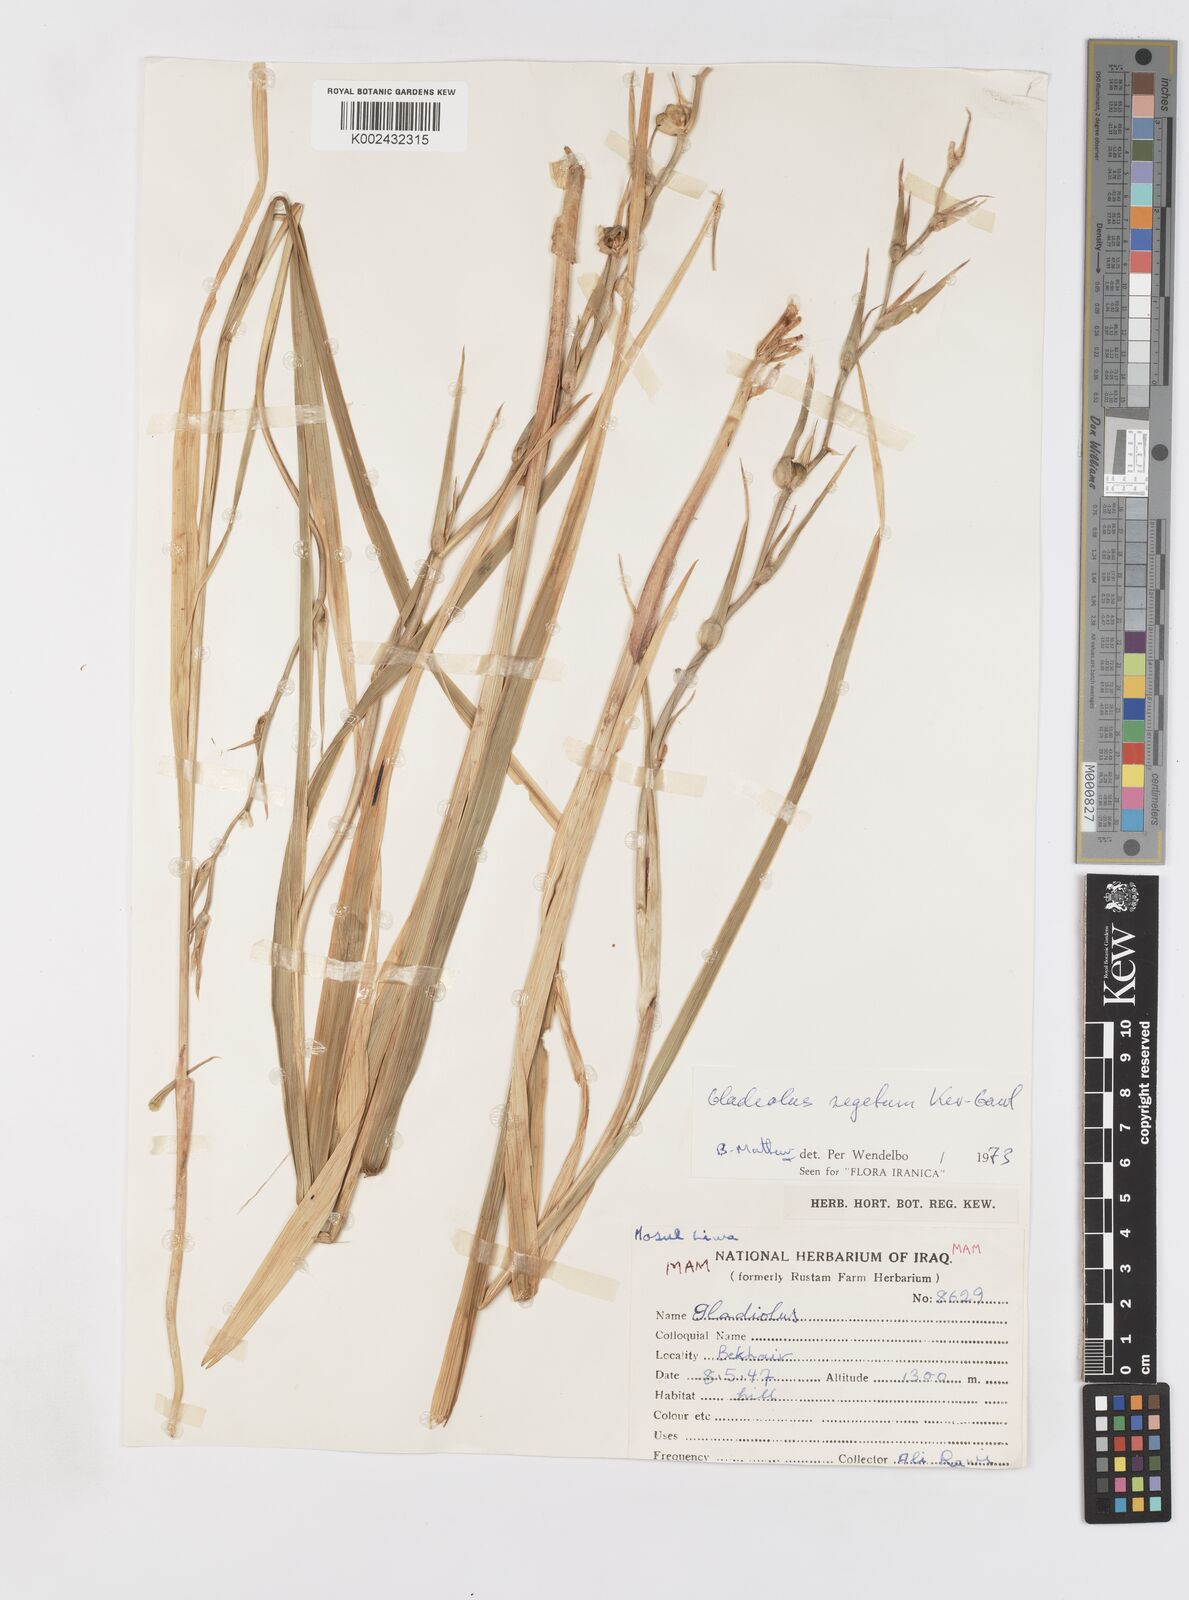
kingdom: Plantae
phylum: Tracheophyta
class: Liliopsida
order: Asparagales
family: Iridaceae
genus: Gladiolus
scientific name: Gladiolus italicus
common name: Field gladiolus
